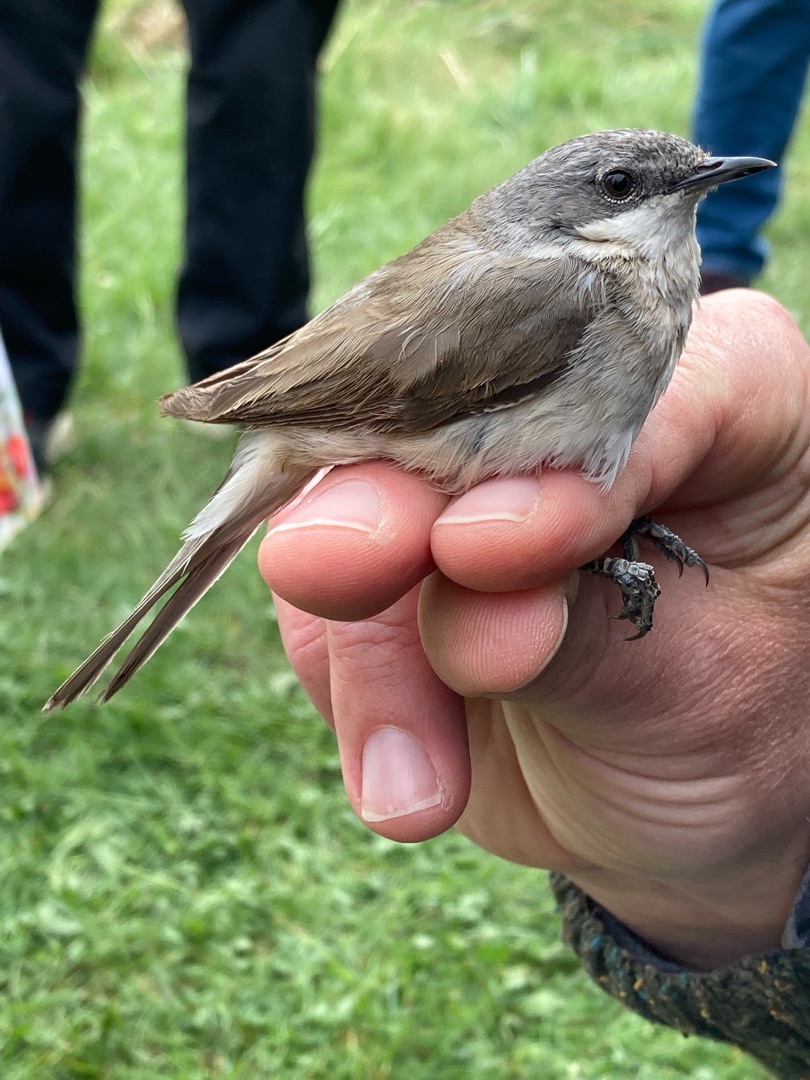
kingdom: Animalia
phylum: Chordata
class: Aves
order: Passeriformes
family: Sylviidae
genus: Sylvia
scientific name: Sylvia curruca
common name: Gærdesanger
